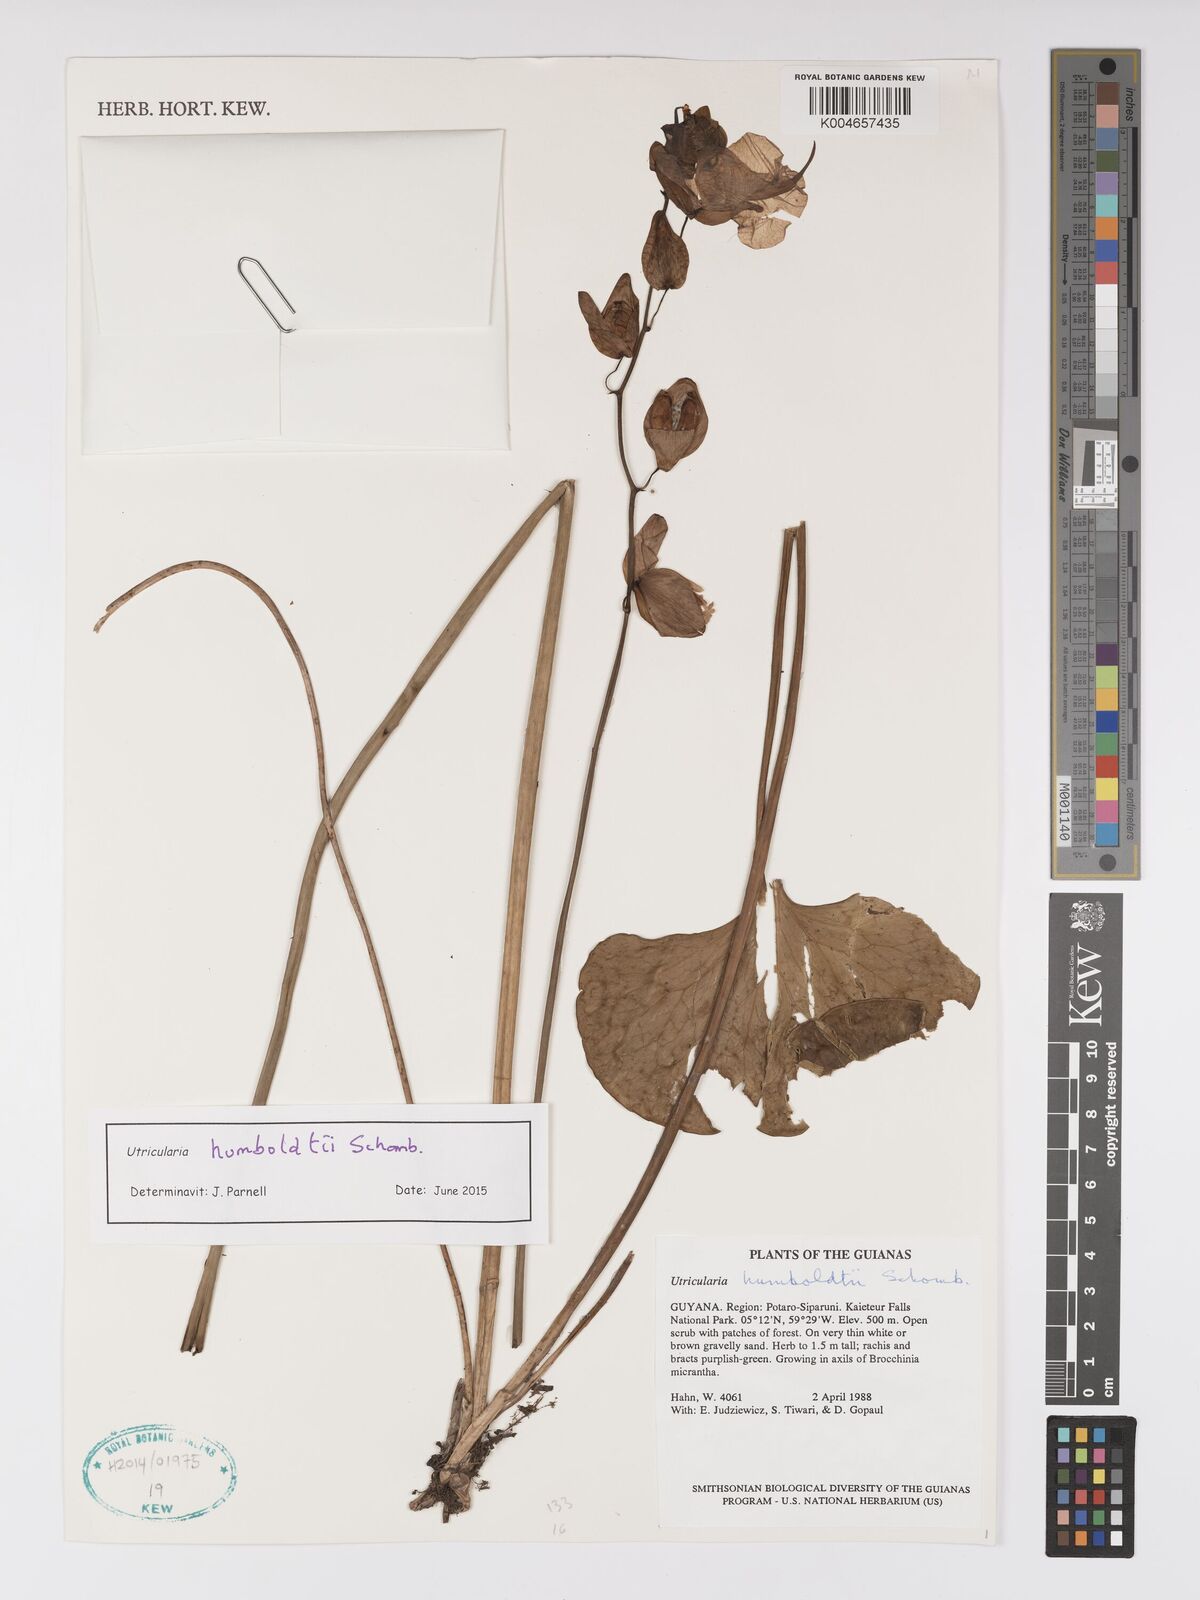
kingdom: Plantae
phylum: Tracheophyta
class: Magnoliopsida
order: Lamiales
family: Lentibulariaceae
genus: Utricularia
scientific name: Utricularia humboldtii
